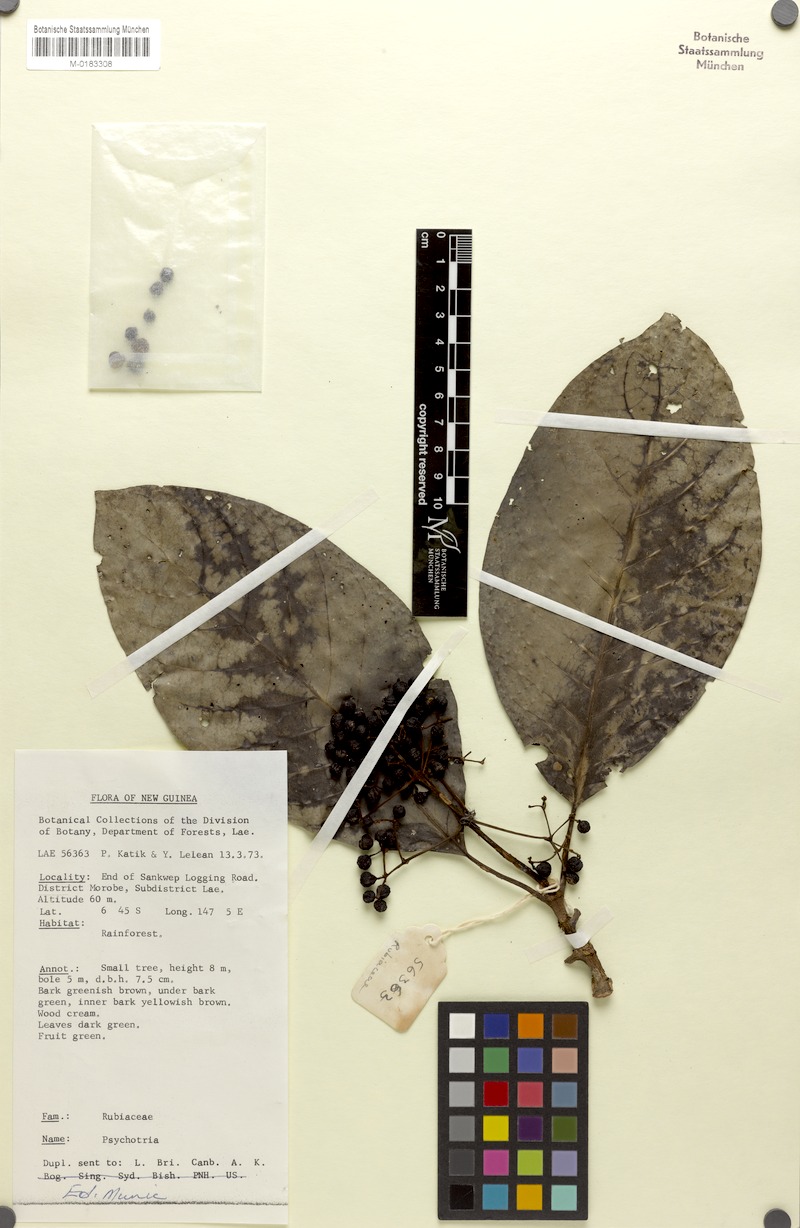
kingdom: Plantae
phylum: Tracheophyta
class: Magnoliopsida
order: Gentianales
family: Rubiaceae
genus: Psychotria
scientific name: Psychotria ramuensis
